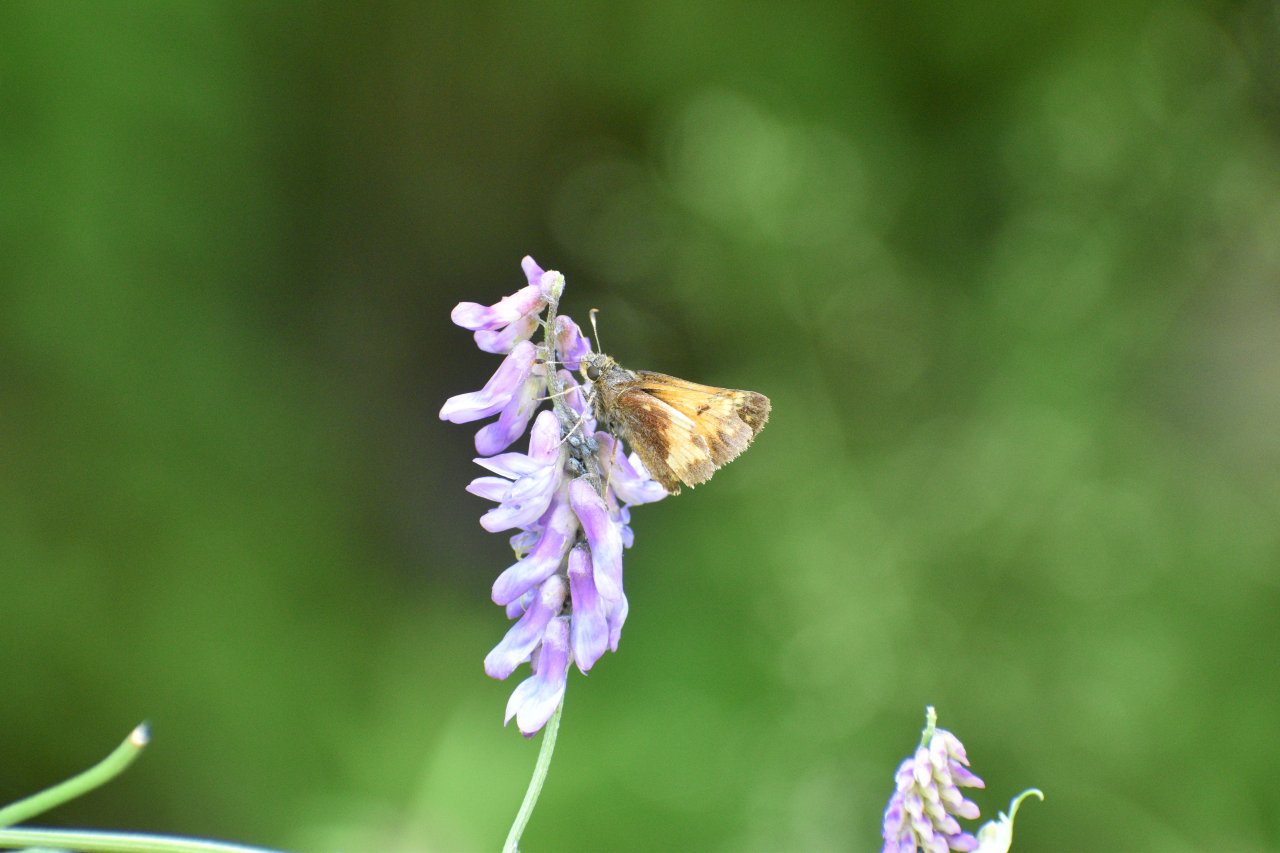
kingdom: Animalia
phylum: Arthropoda
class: Insecta
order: Lepidoptera
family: Hesperiidae
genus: Lon
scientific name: Lon hobomok
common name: Hobomok Skipper
